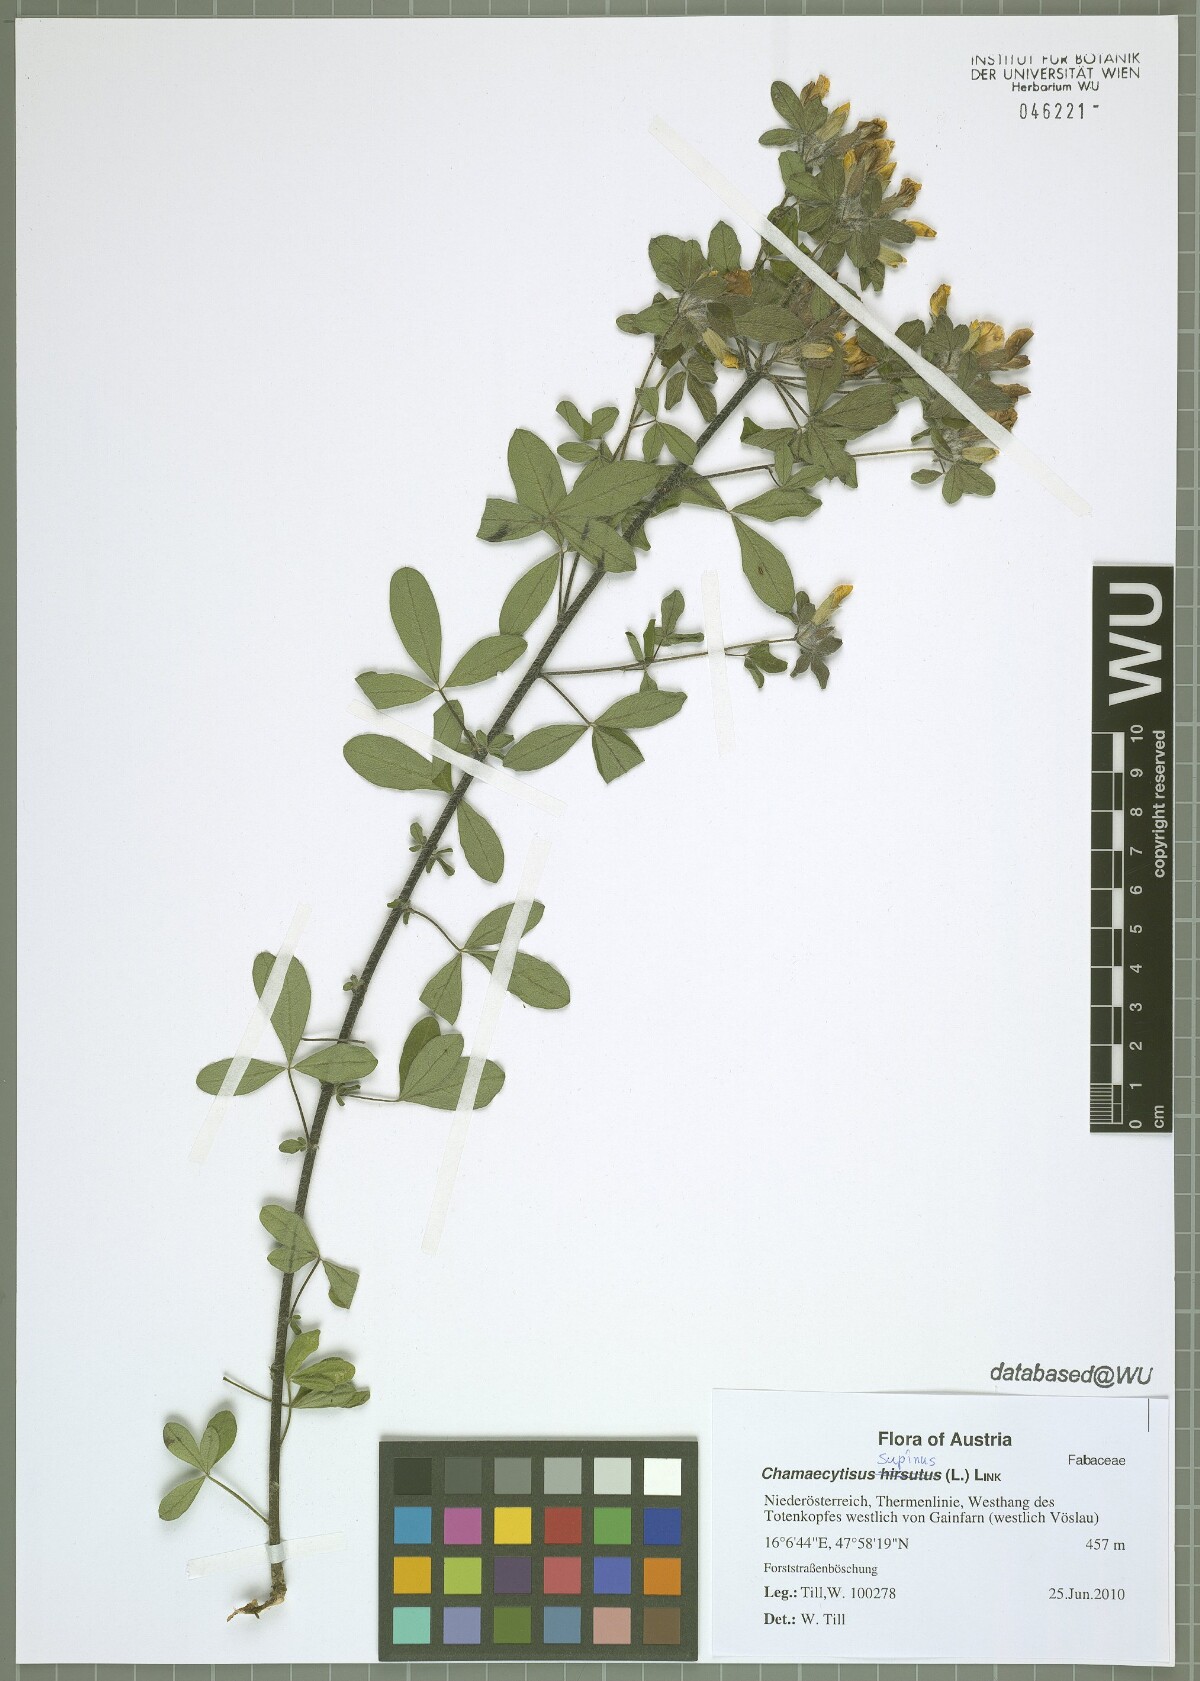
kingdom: Plantae
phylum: Tracheophyta
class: Magnoliopsida
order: Fabales
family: Fabaceae
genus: Chamaecytisus
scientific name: Chamaecytisus supinus
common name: Clustered broom
